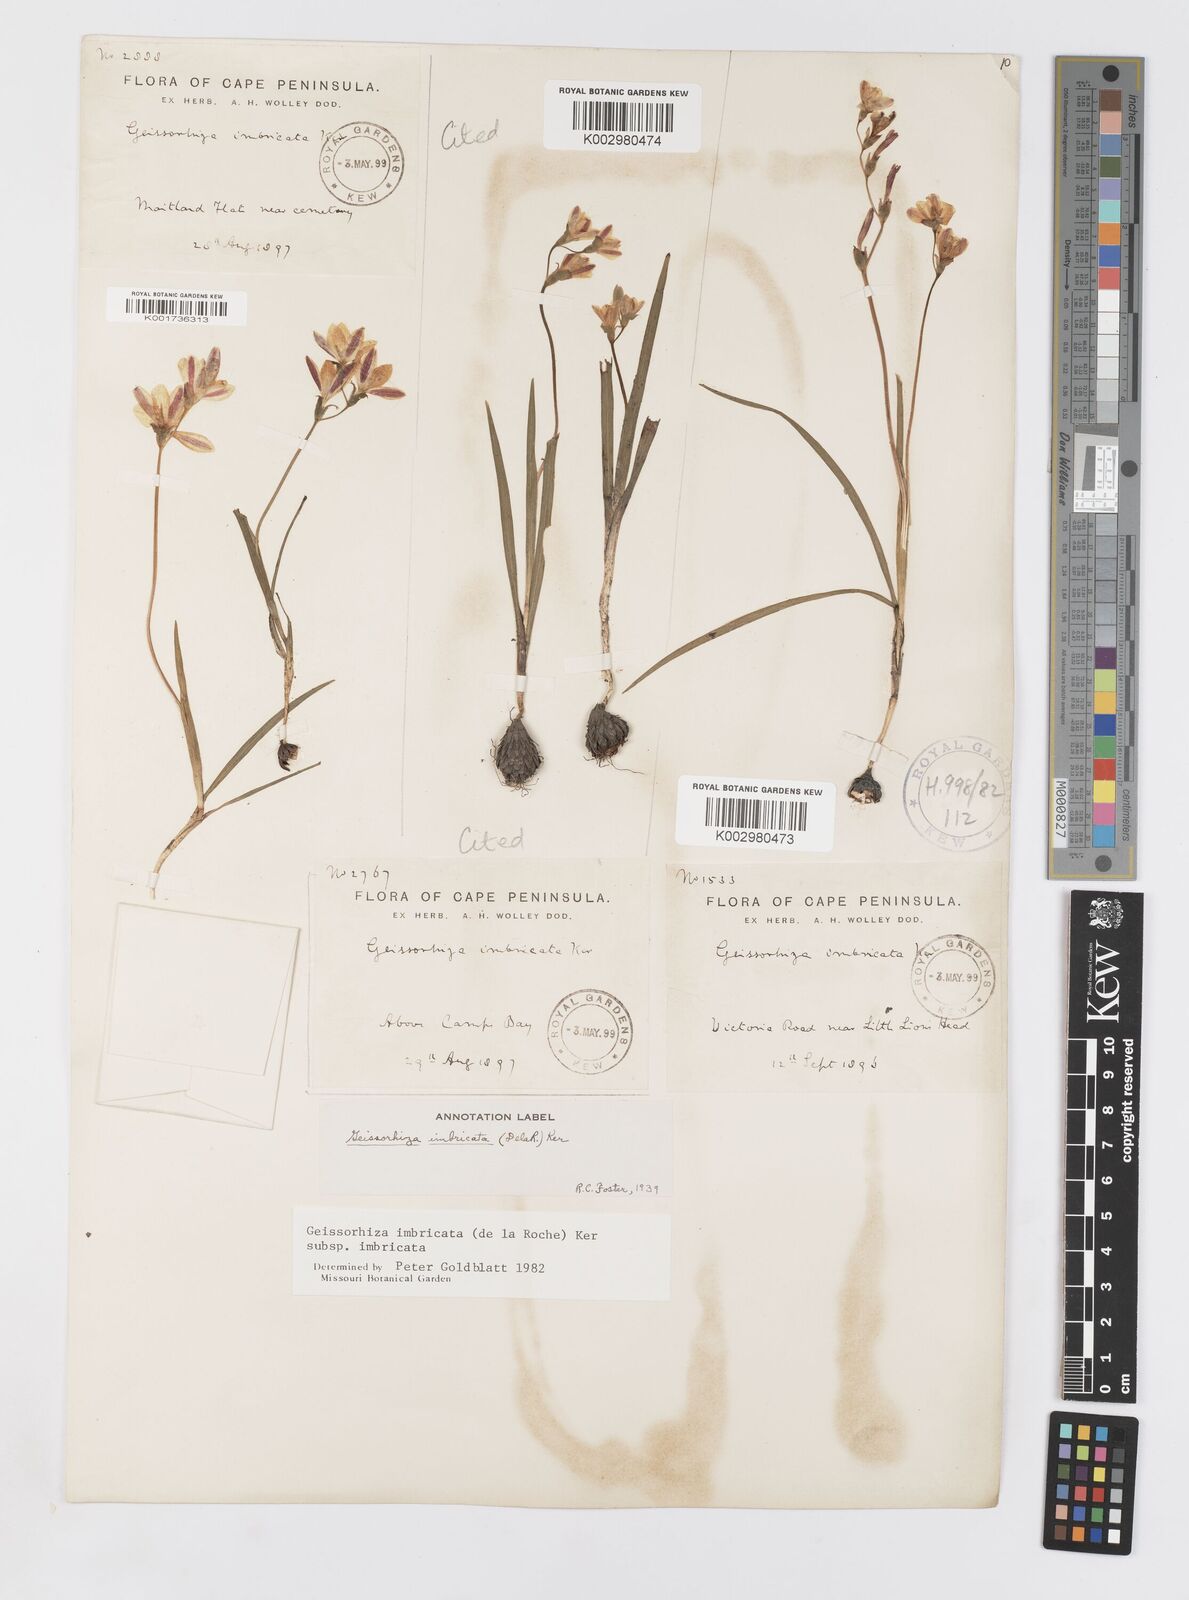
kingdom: Plantae
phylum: Tracheophyta
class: Liliopsida
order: Asparagales
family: Iridaceae
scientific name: Iridaceae
